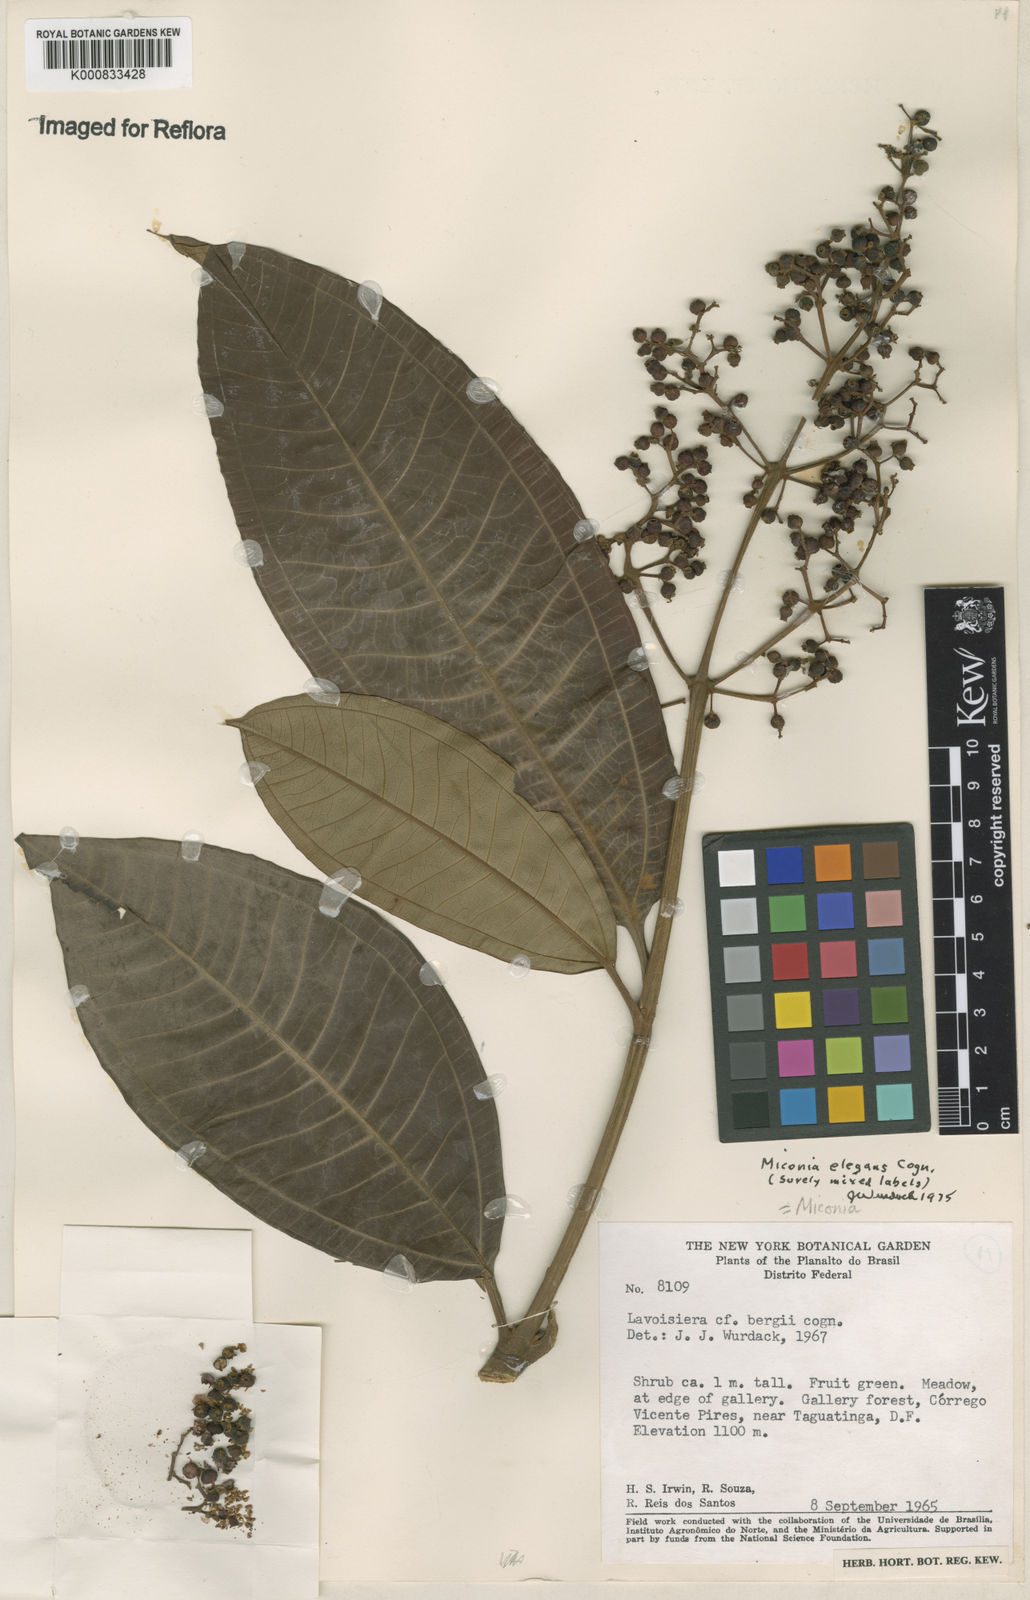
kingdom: Plantae
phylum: Tracheophyta
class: Magnoliopsida
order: Myrtales
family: Melastomataceae
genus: Miconia
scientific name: Miconia elegans
